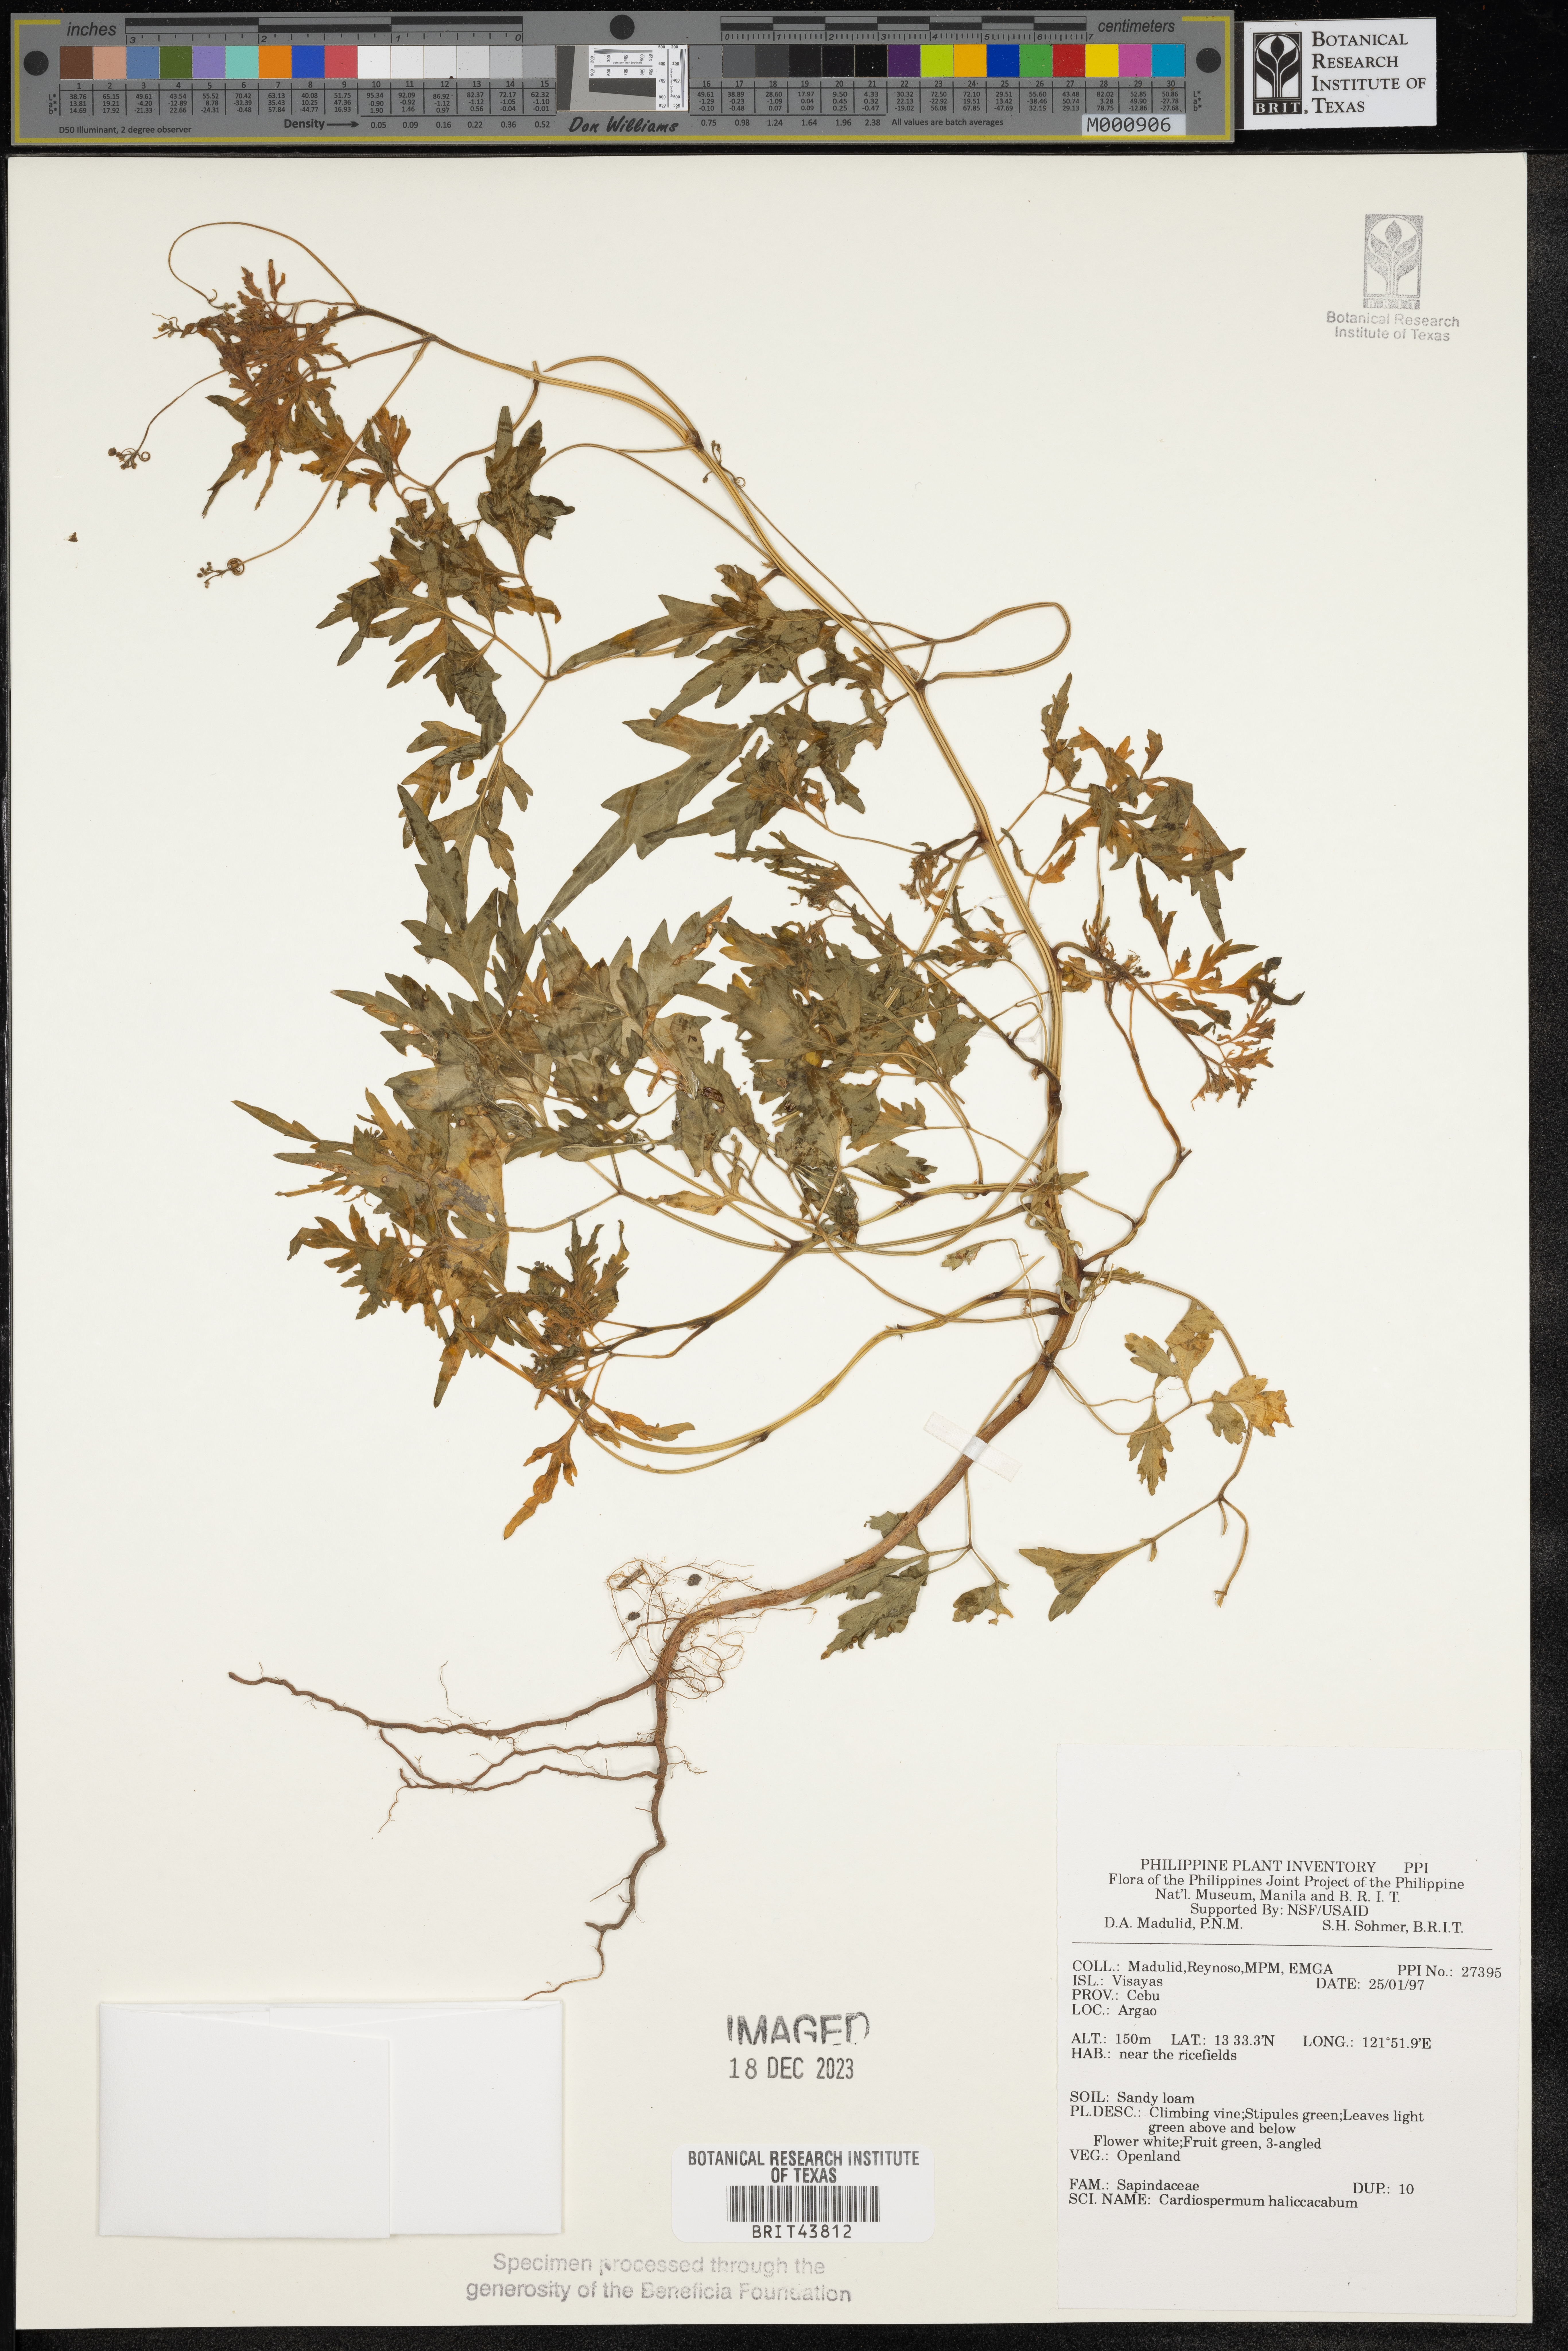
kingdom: Plantae
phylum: Tracheophyta
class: Magnoliopsida
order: Sapindales
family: Sapindaceae
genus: Cardiospermum
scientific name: Cardiospermum halicacabum
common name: Balloon vine
